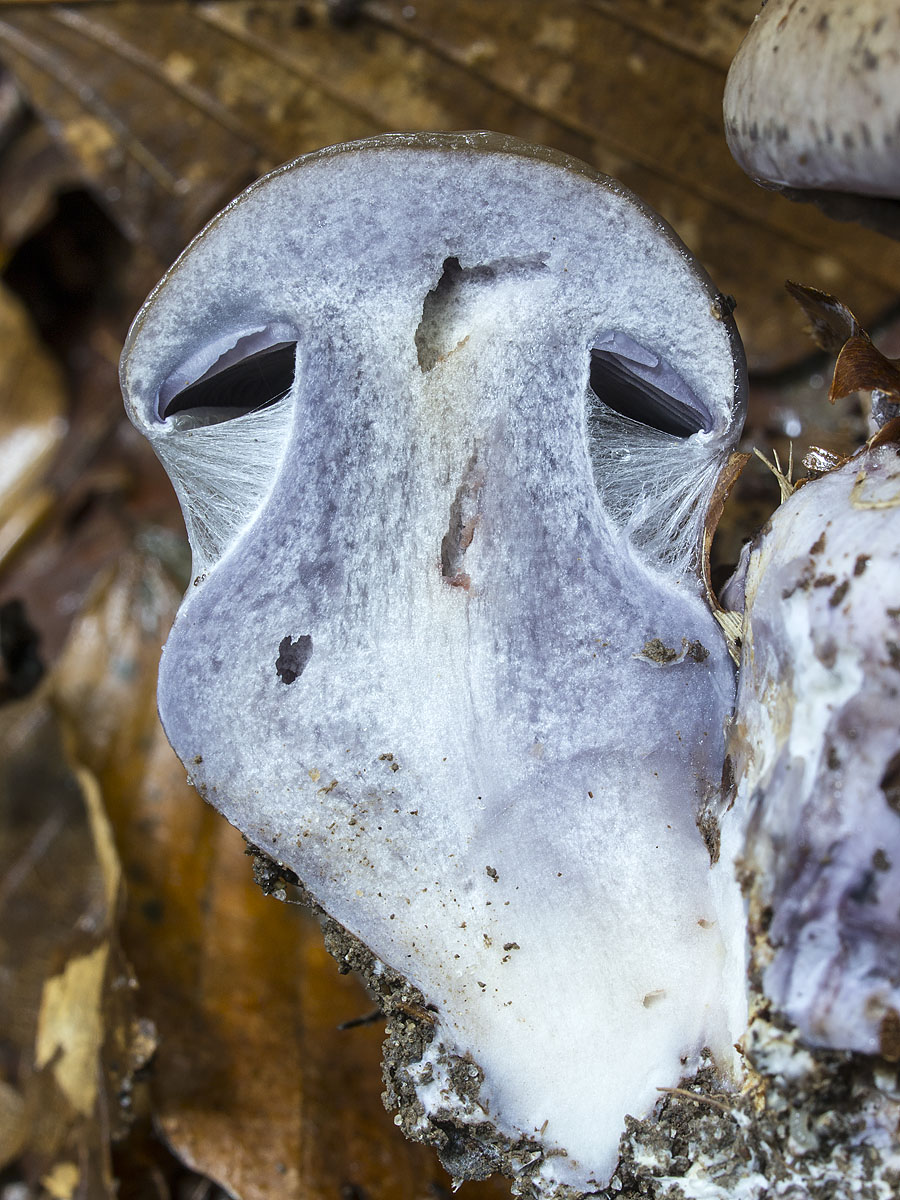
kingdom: Fungi
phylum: Basidiomycota
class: Agaricomycetes
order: Agaricales
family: Cortinariaceae
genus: Thaxterogaster
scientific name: Thaxterogaster subpurpurascens
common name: mørkblånende slørhat
